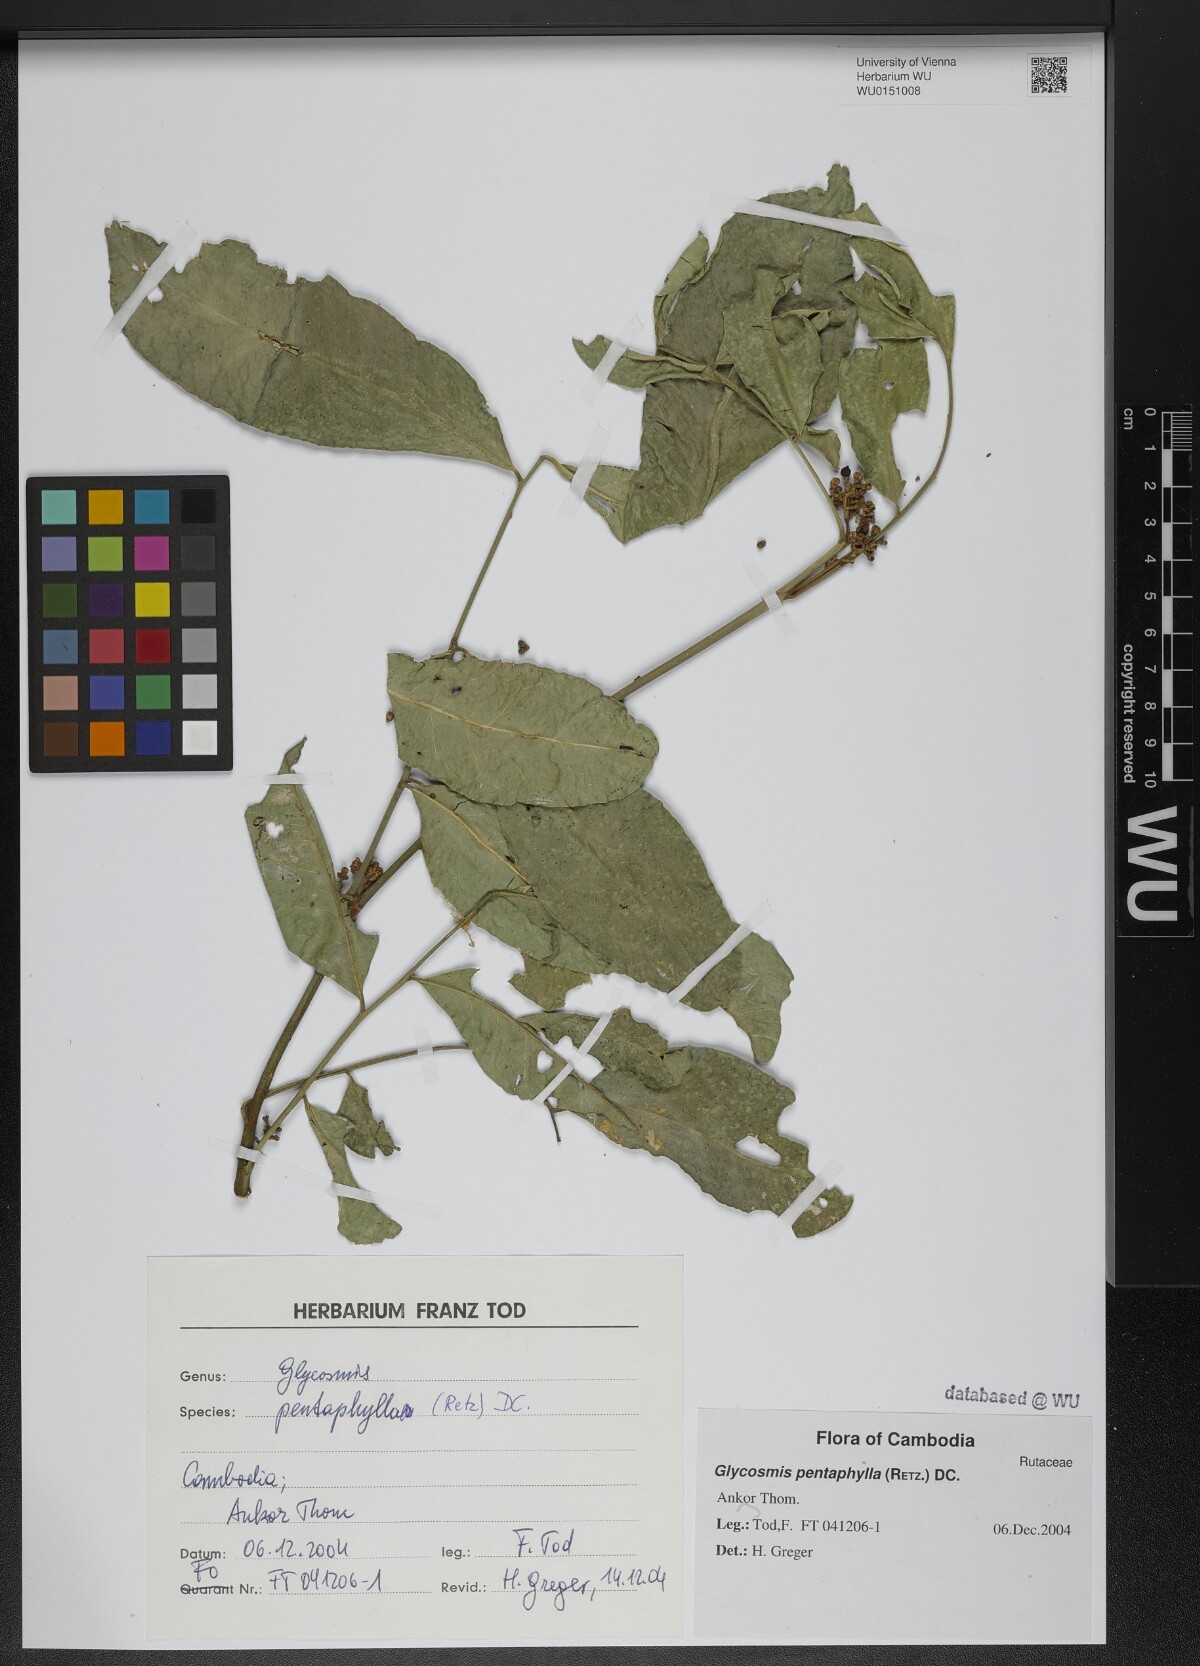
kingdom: Plantae
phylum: Tracheophyta
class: Magnoliopsida
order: Sapindales
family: Rutaceae
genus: Glycosmis
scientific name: Glycosmis pentaphylla
